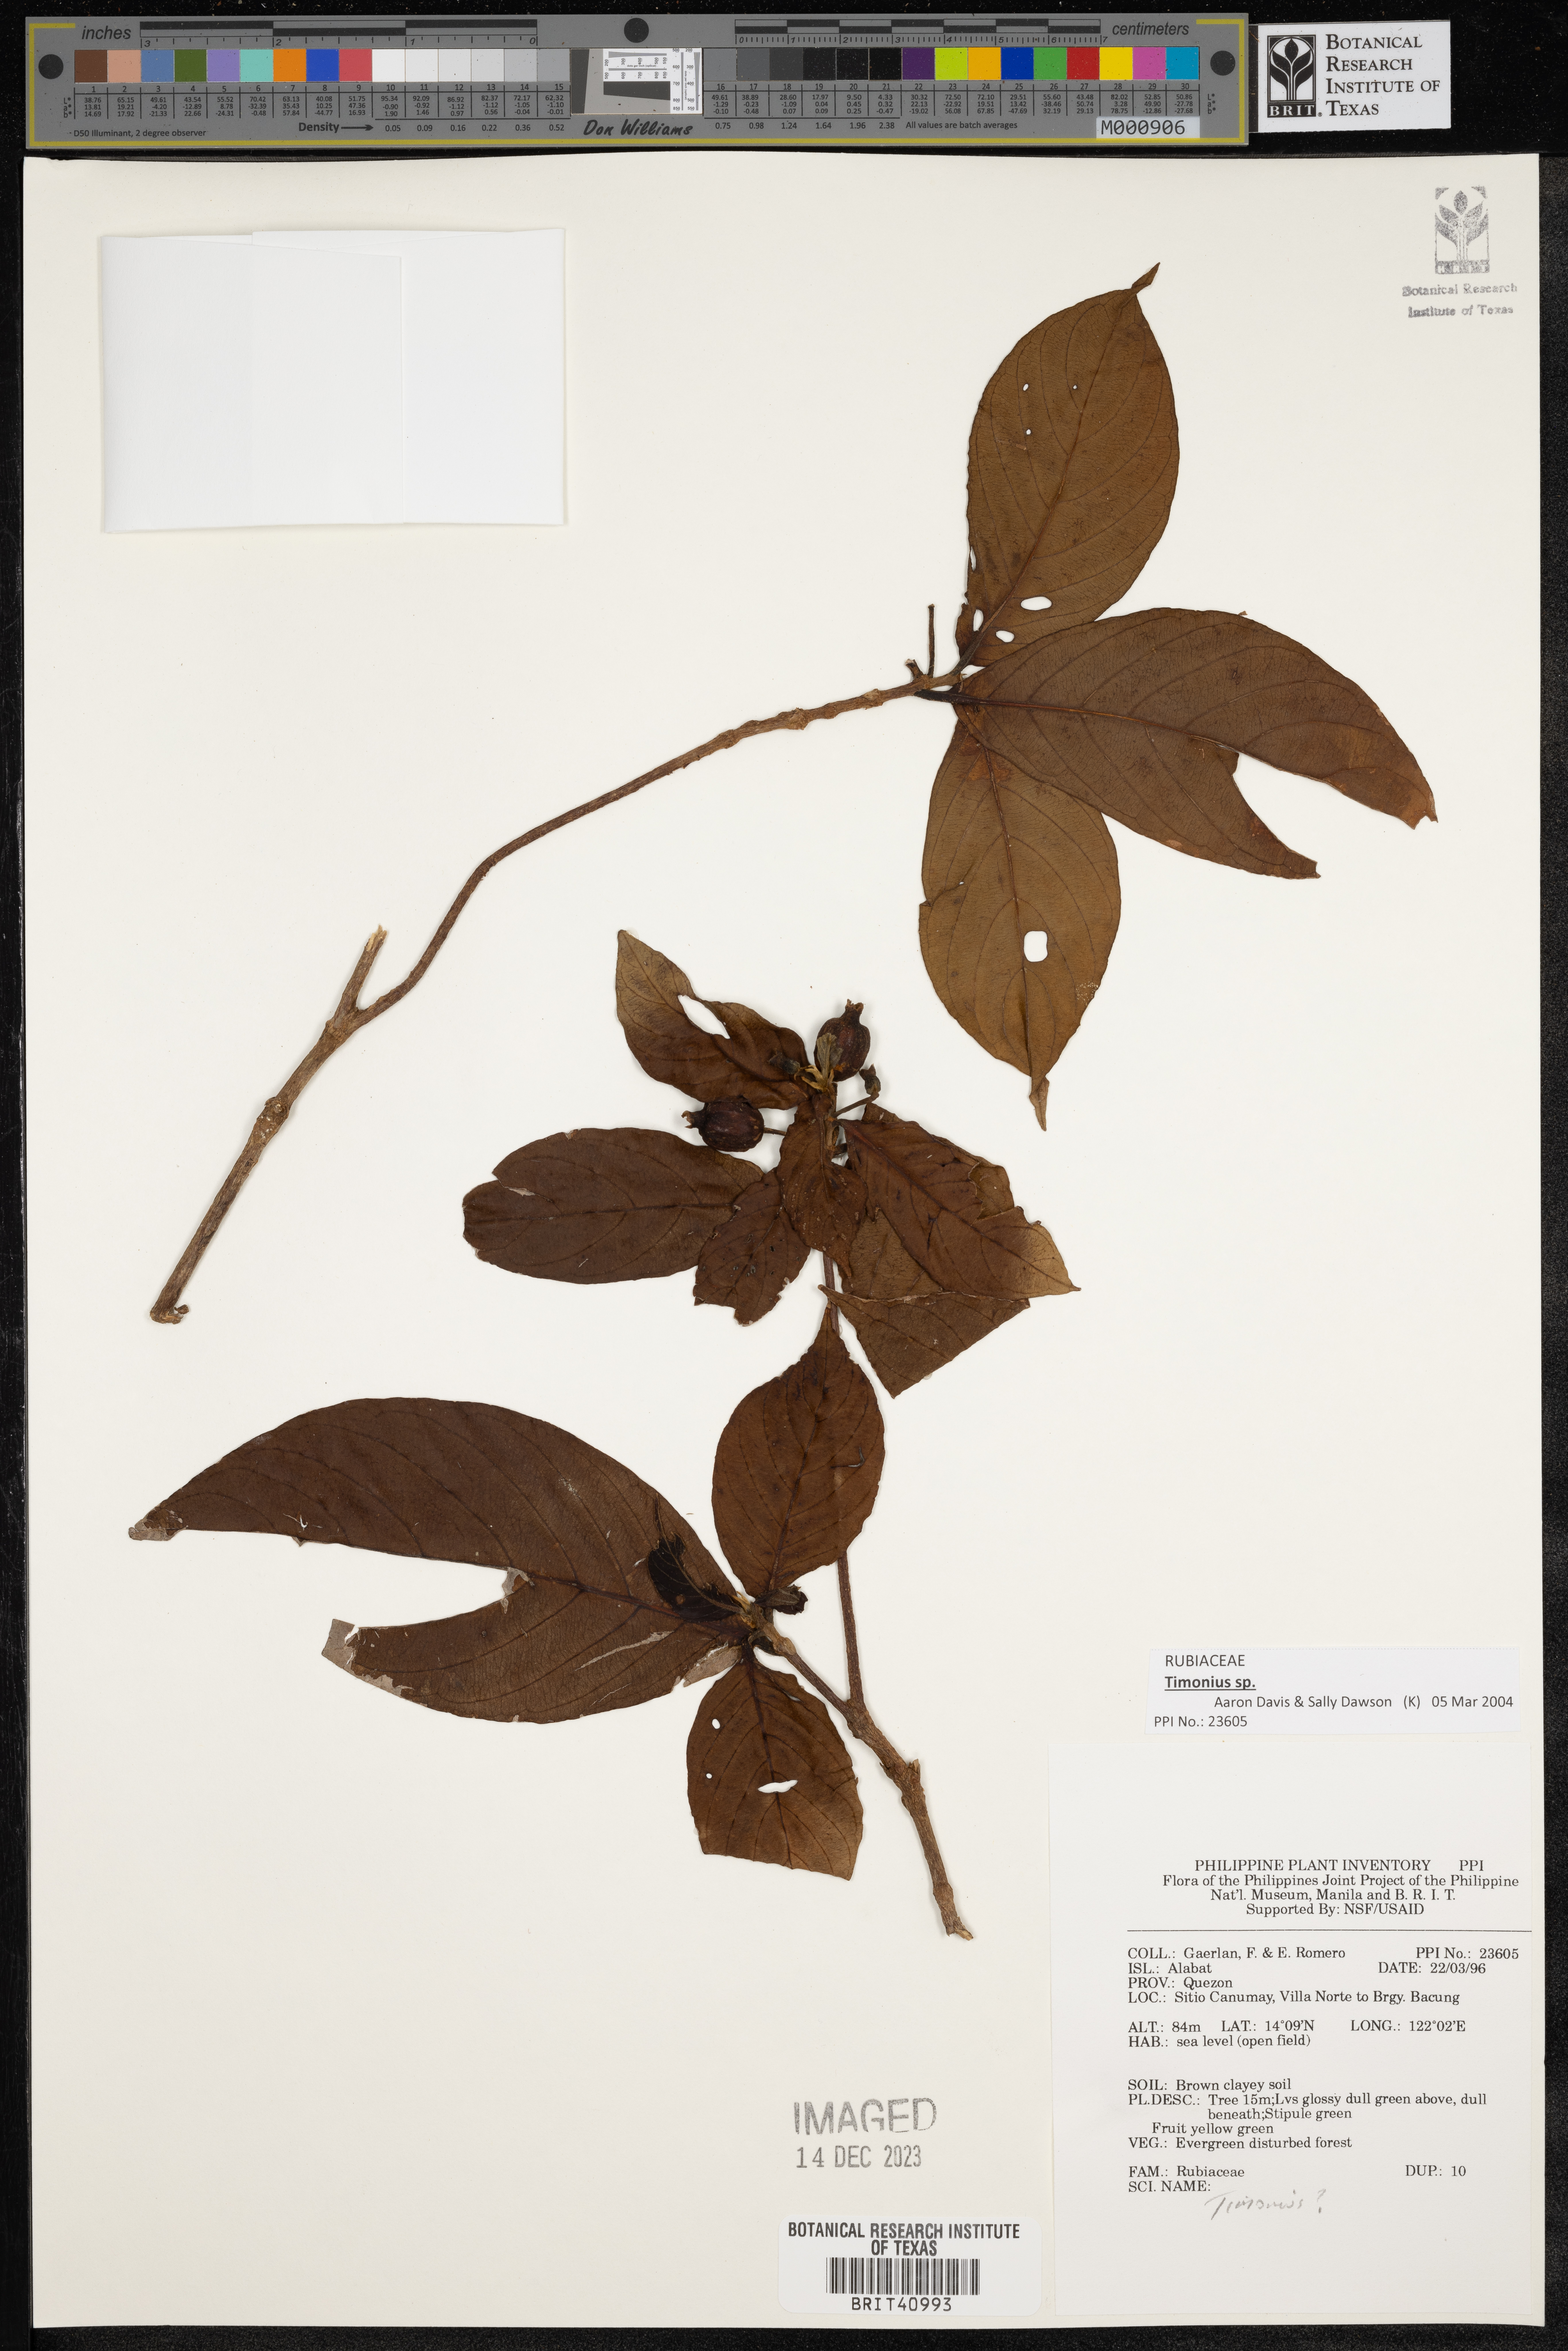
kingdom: Plantae
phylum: Tracheophyta
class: Magnoliopsida
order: Gentianales
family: Rubiaceae
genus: Timonius
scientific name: Timonius
